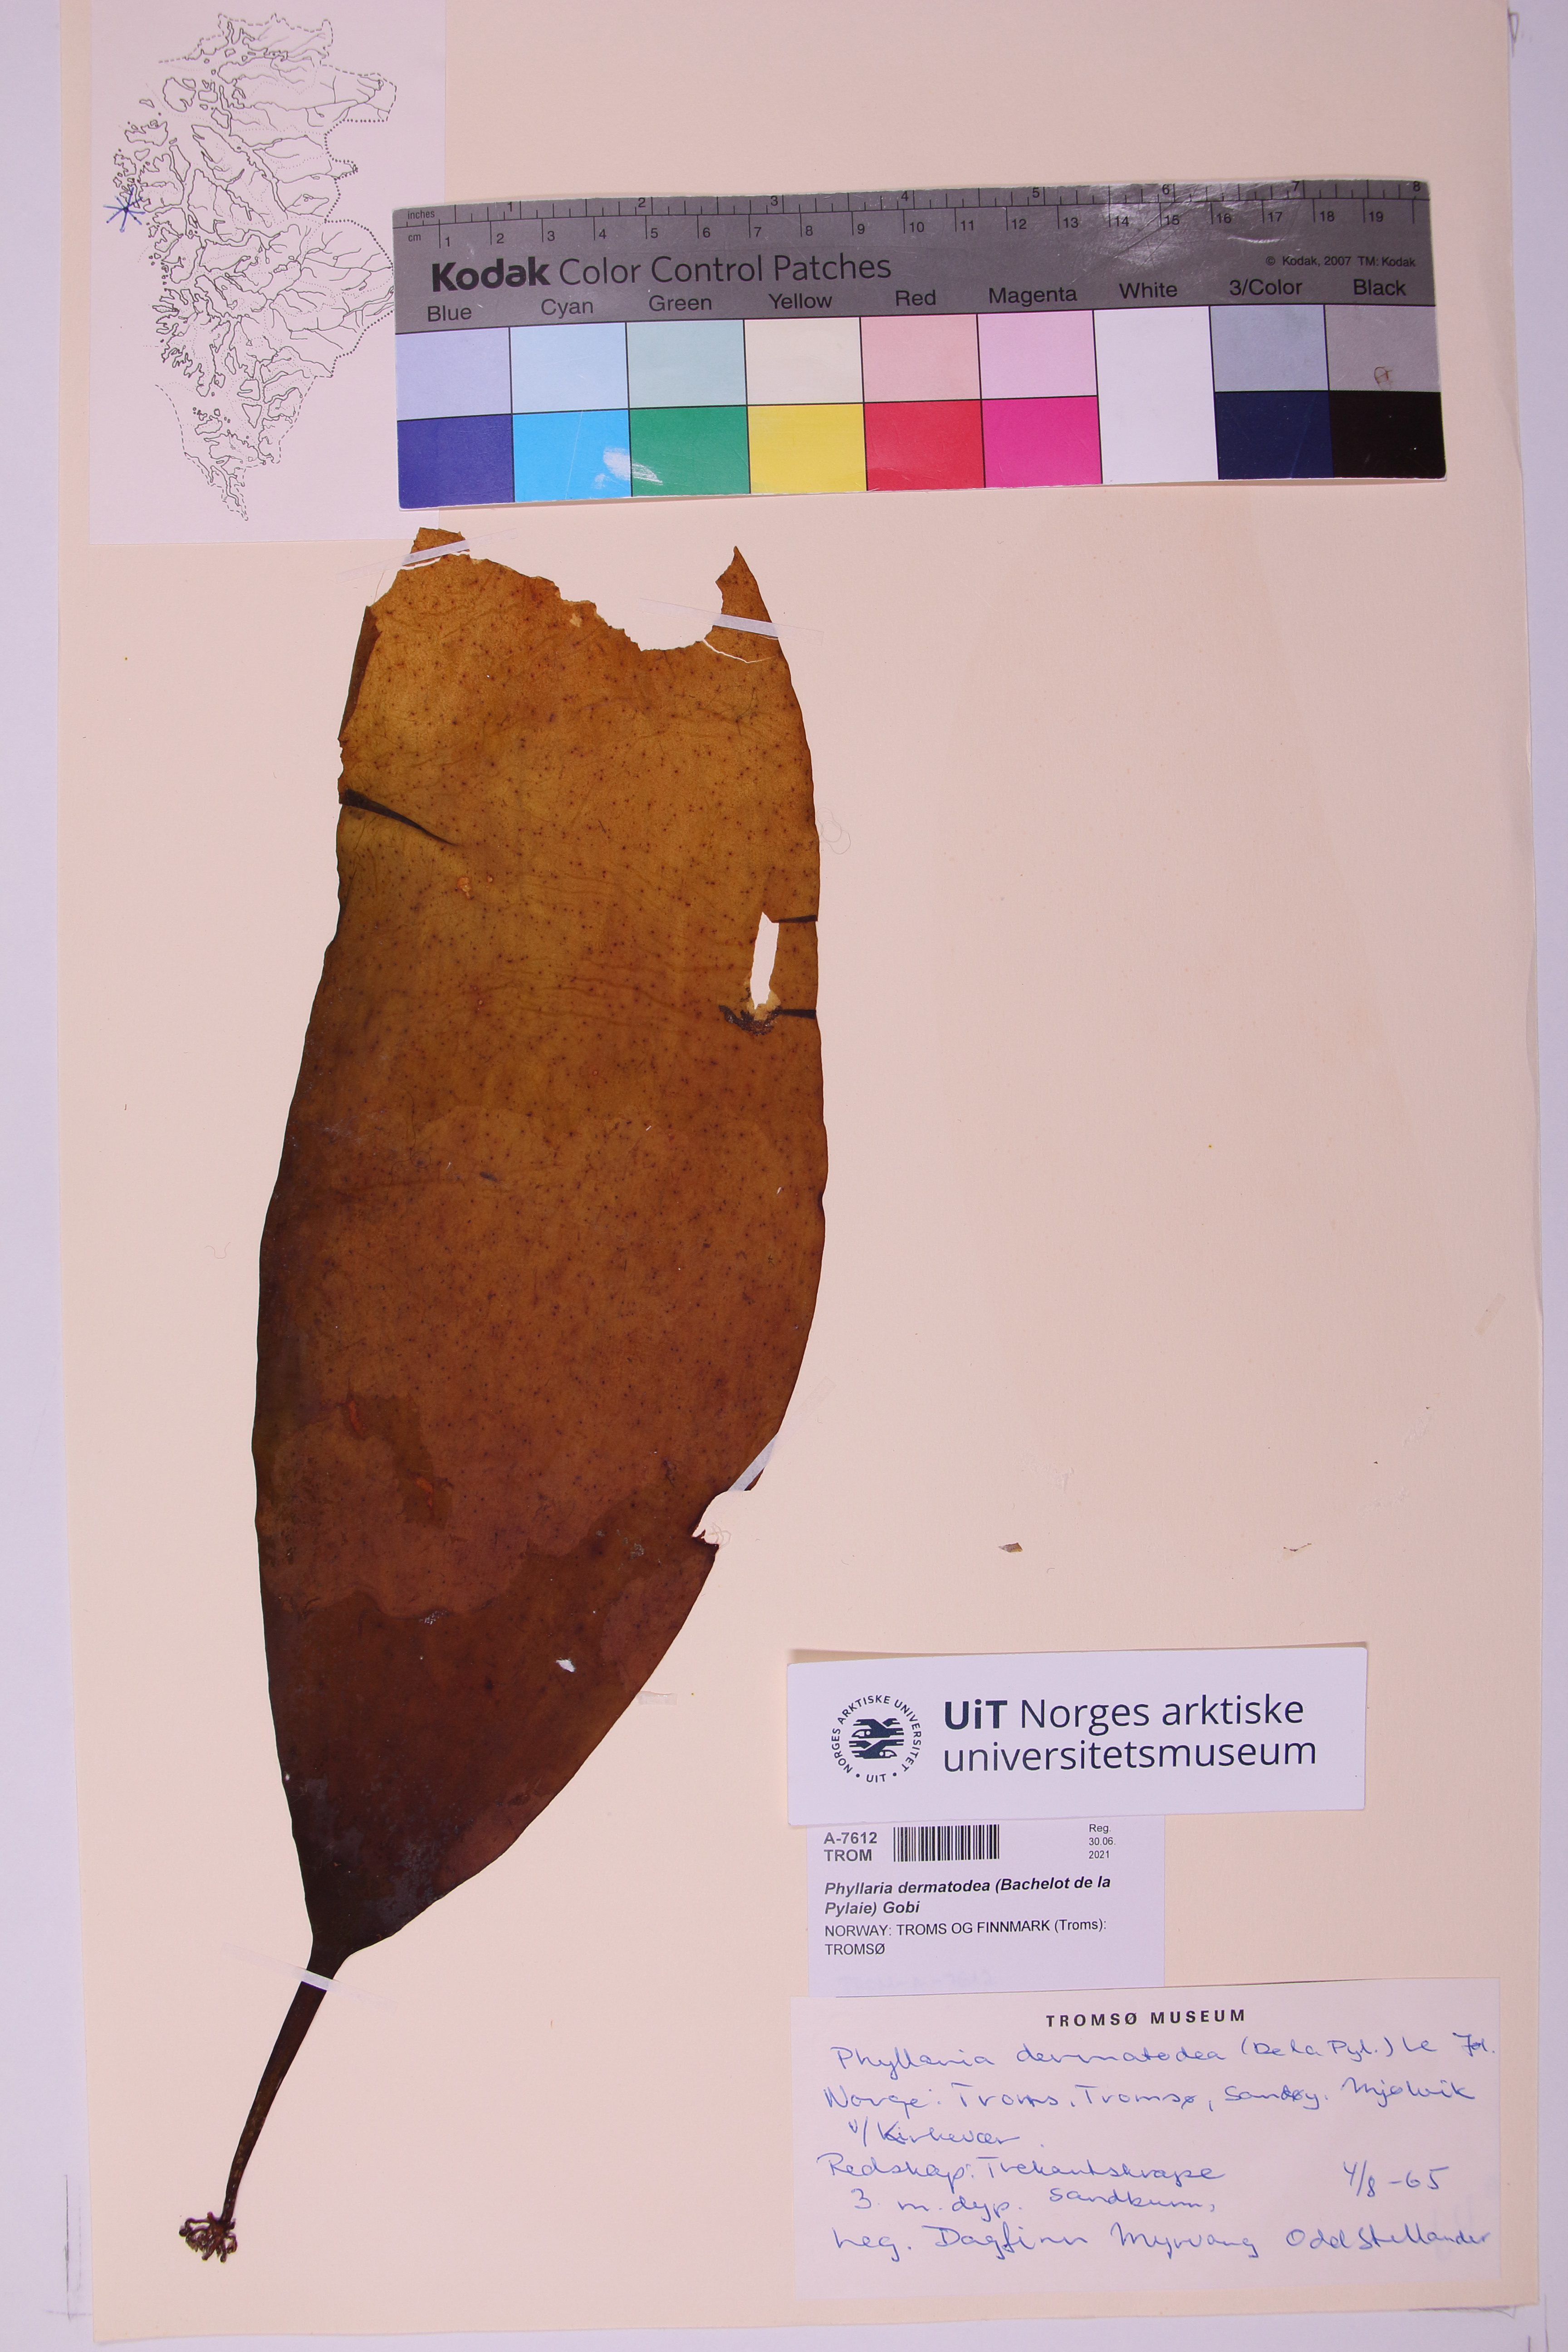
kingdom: Chromista
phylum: Ochrophyta
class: Phaeophyceae
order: Tilopteridales
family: Phyllariaceae
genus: Saccorhiza
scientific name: Saccorhiza dermatodea
